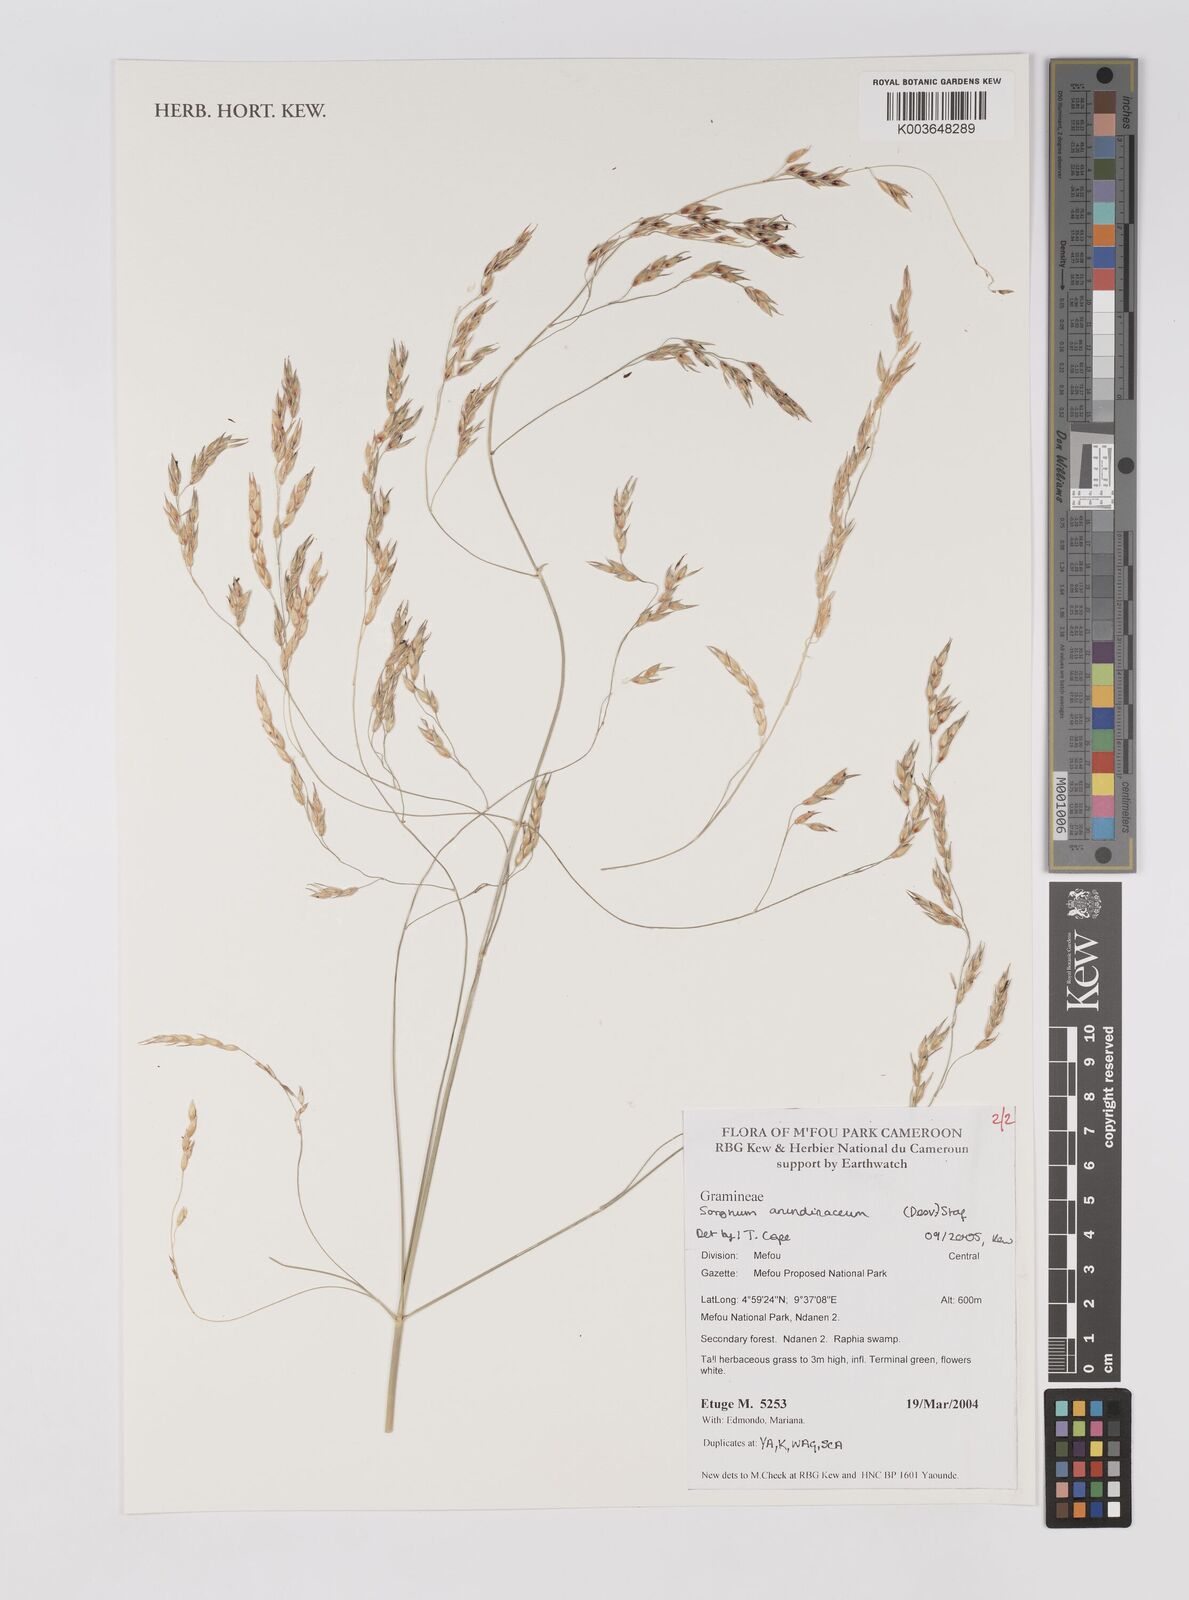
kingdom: Plantae
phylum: Tracheophyta
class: Liliopsida
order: Poales
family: Poaceae
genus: Sorghum
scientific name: Sorghum arundinaceum
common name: Sorghum
